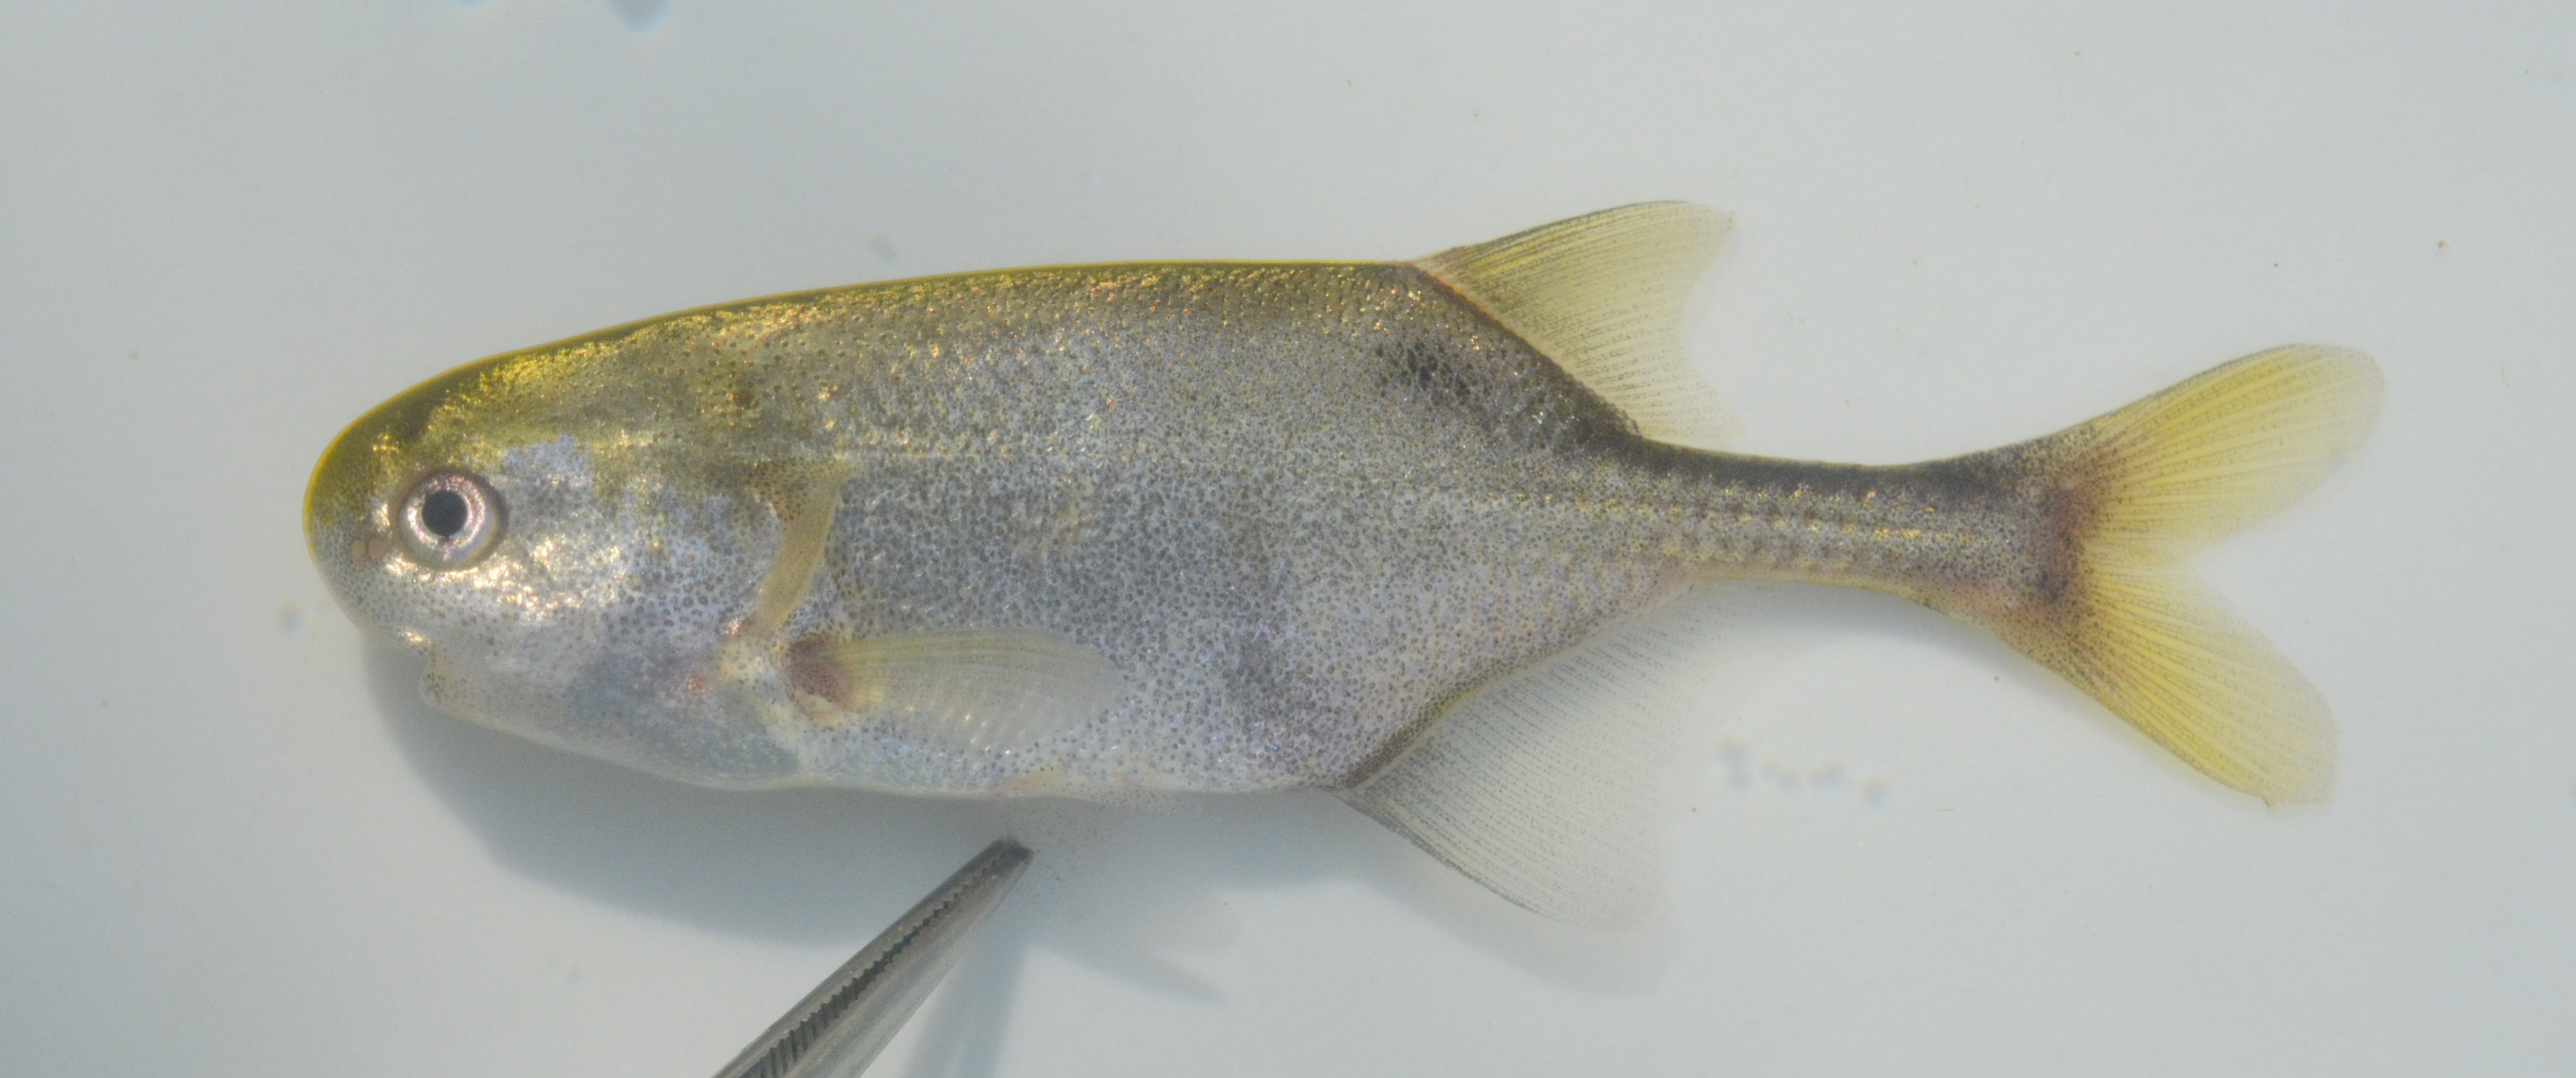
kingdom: Animalia
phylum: Chordata
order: Osteoglossiformes
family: Mormyridae
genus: Petrocephalus
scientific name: Petrocephalus okavangensis
